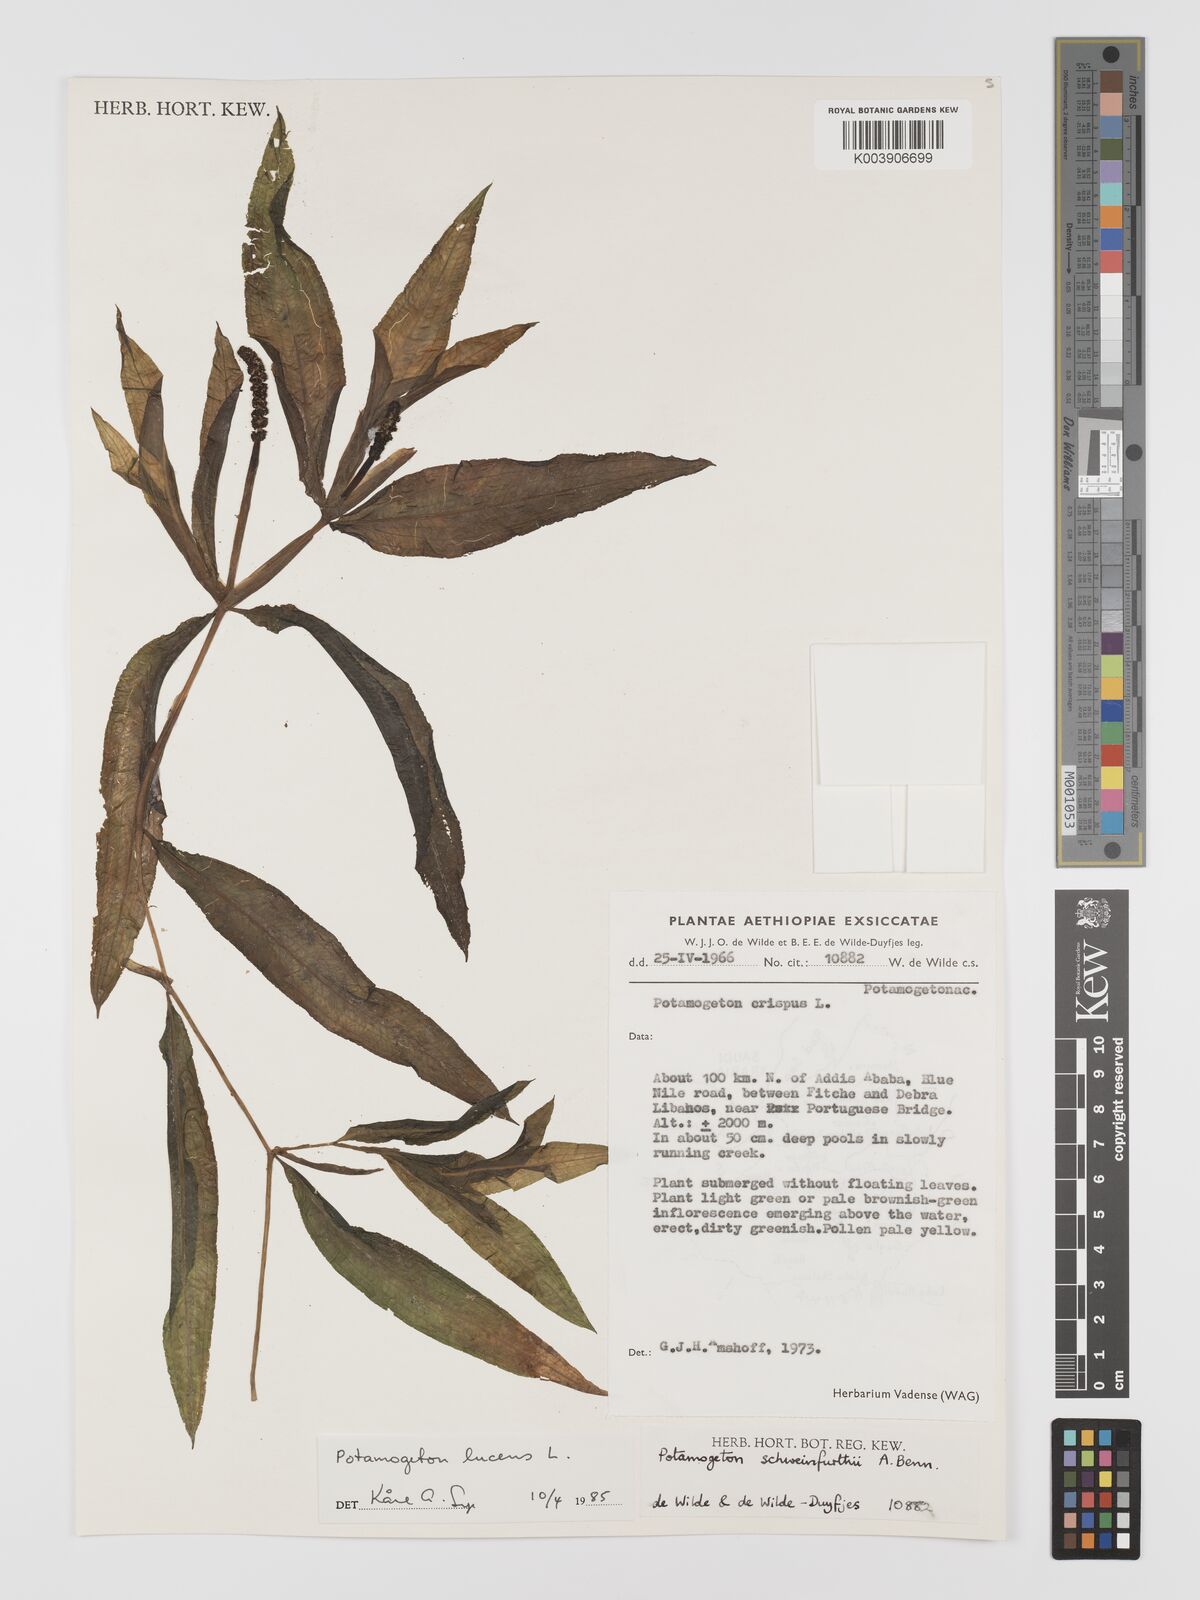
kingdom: Plantae
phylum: Tracheophyta
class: Liliopsida
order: Alismatales
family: Potamogetonaceae
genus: Potamogeton
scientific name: Potamogeton schweinfurthii
